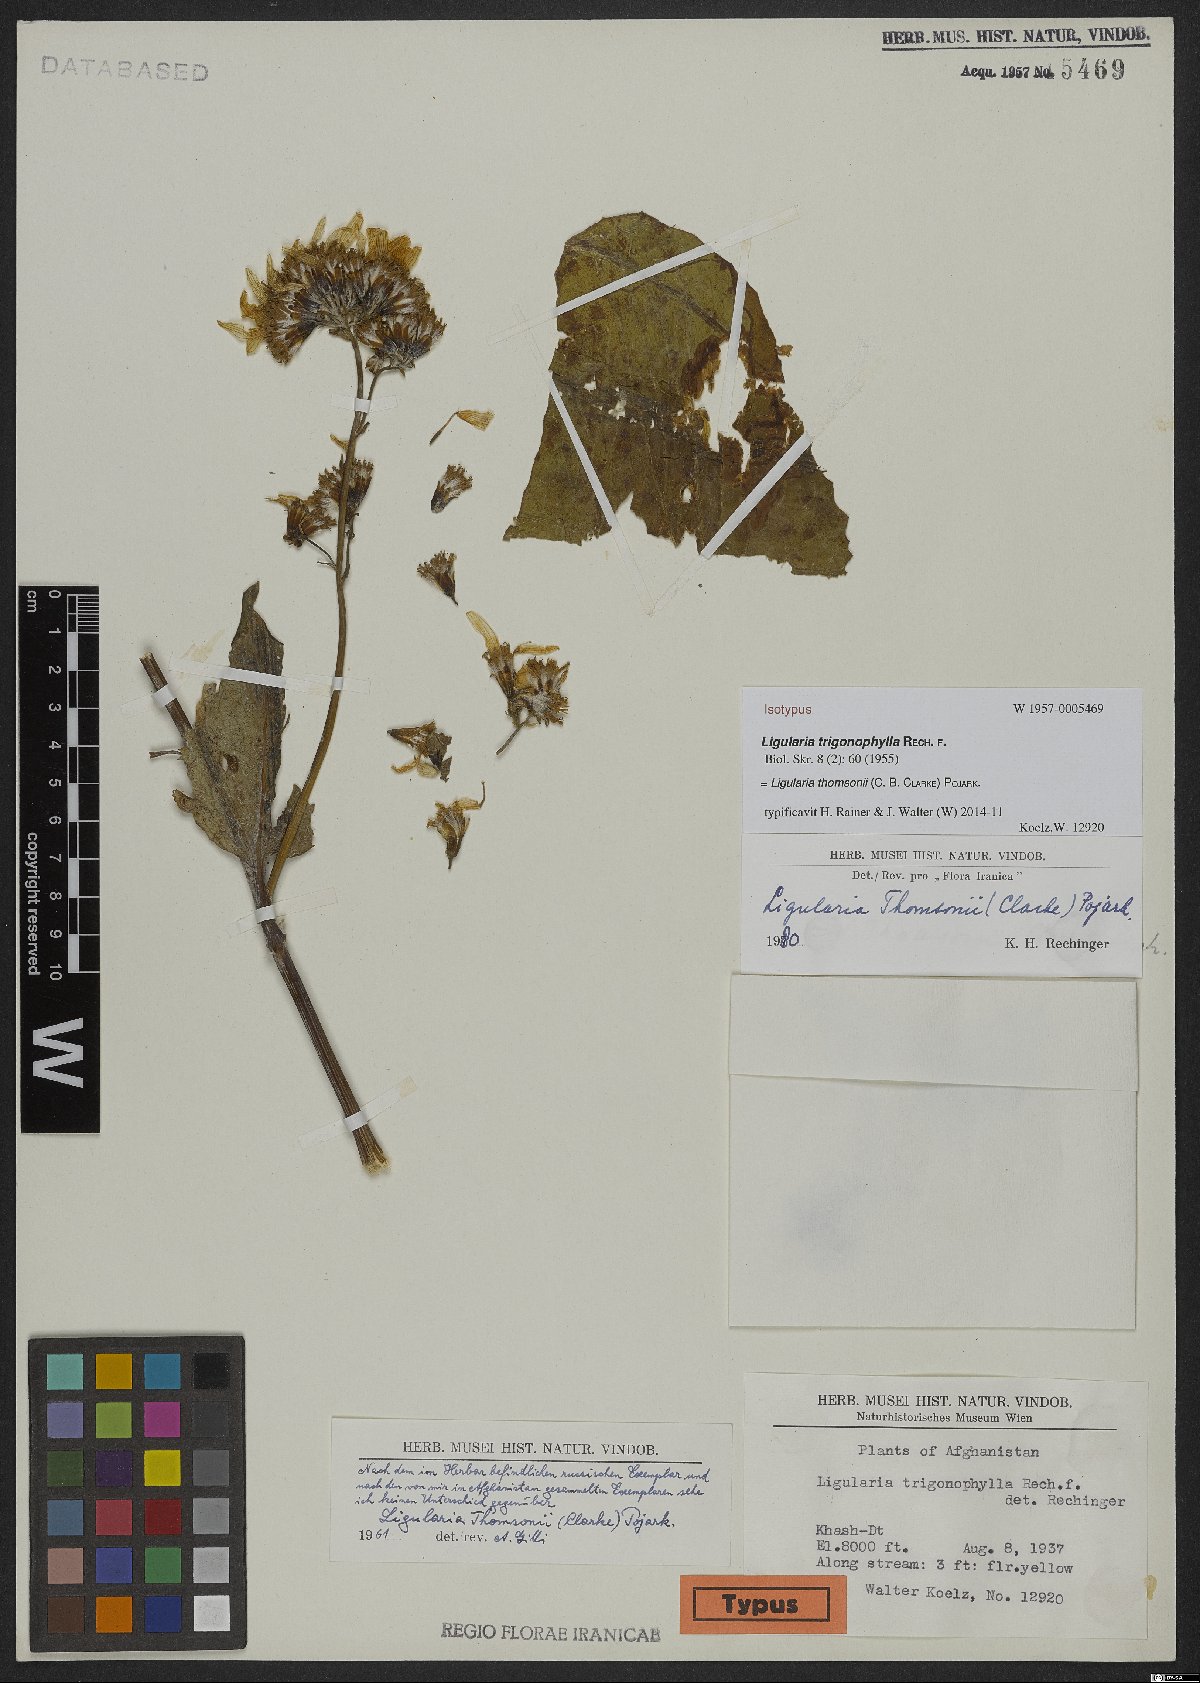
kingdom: Plantae
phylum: Tracheophyta
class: Magnoliopsida
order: Asterales
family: Asteraceae
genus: Vickifunkia
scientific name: Vickifunkia thomsonii
